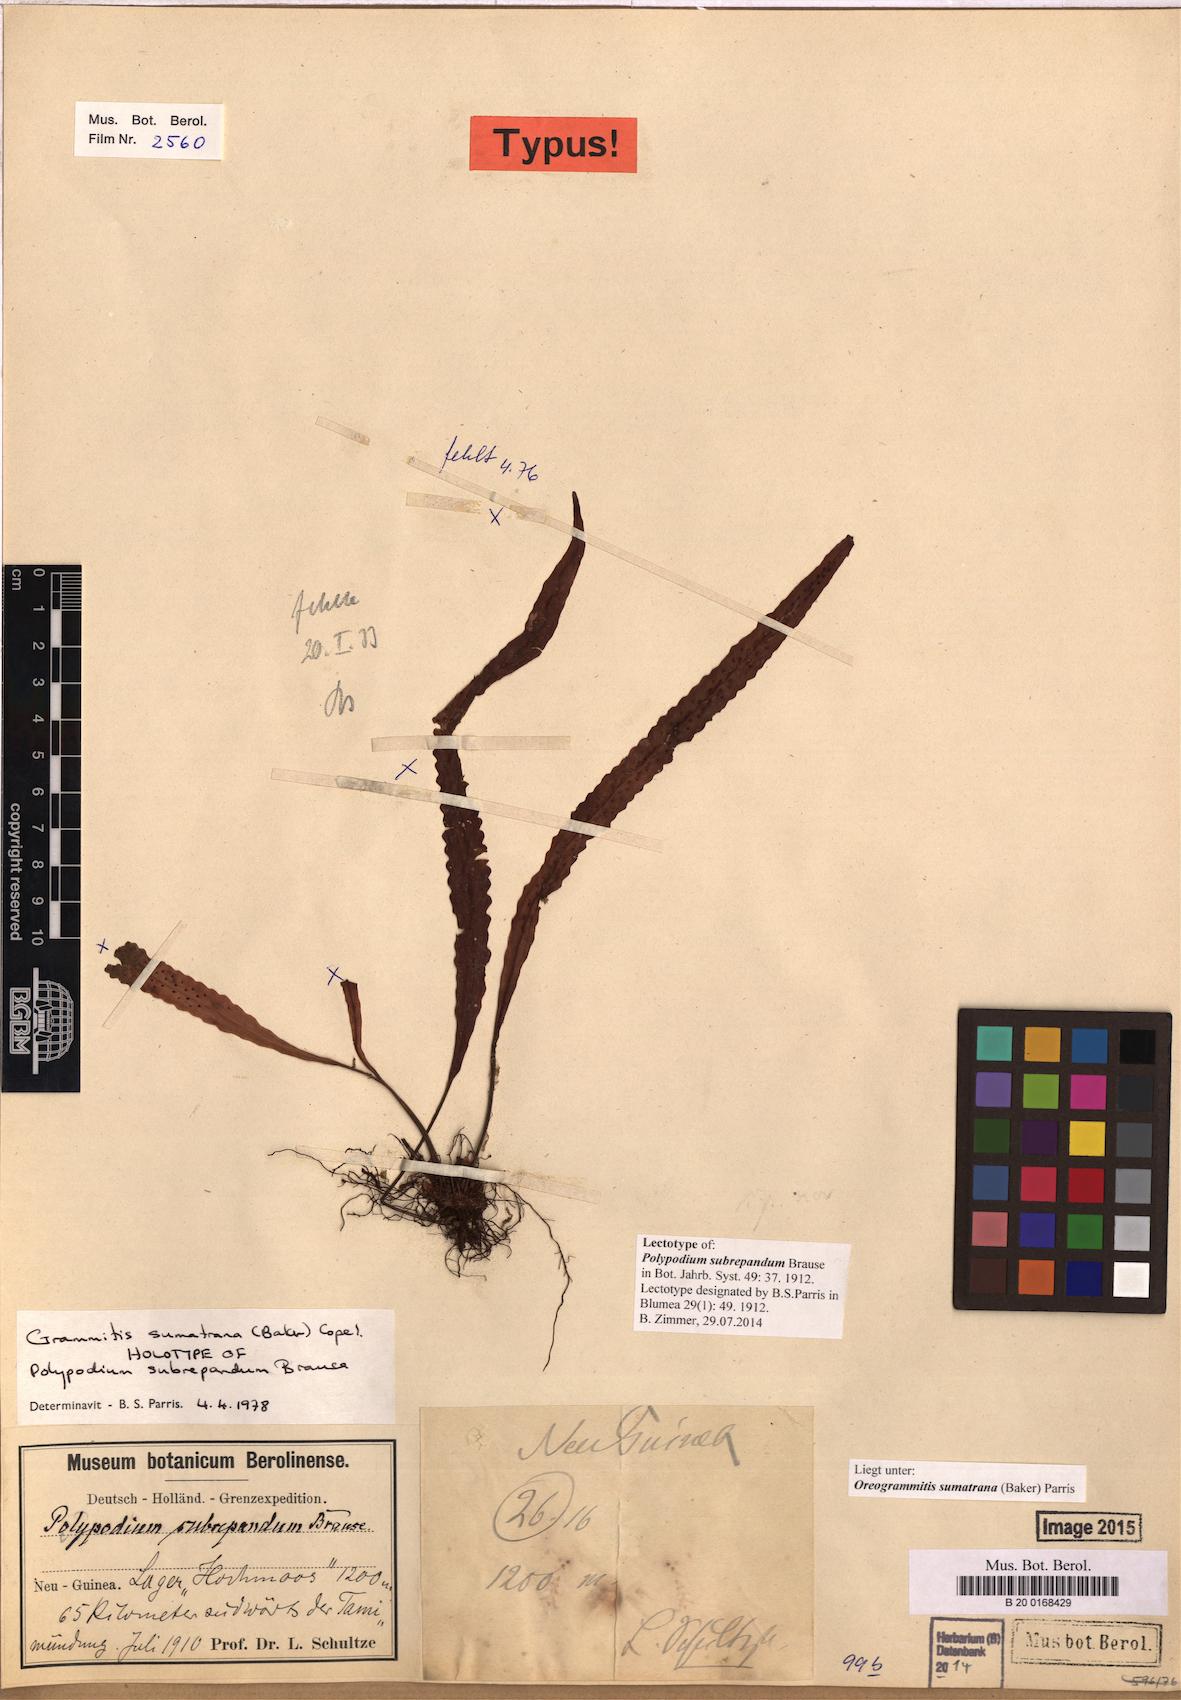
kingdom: Plantae
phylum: Tracheophyta
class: Polypodiopsida
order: Polypodiales
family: Polypodiaceae
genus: Oreogrammitis
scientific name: Oreogrammitis sumatrana
